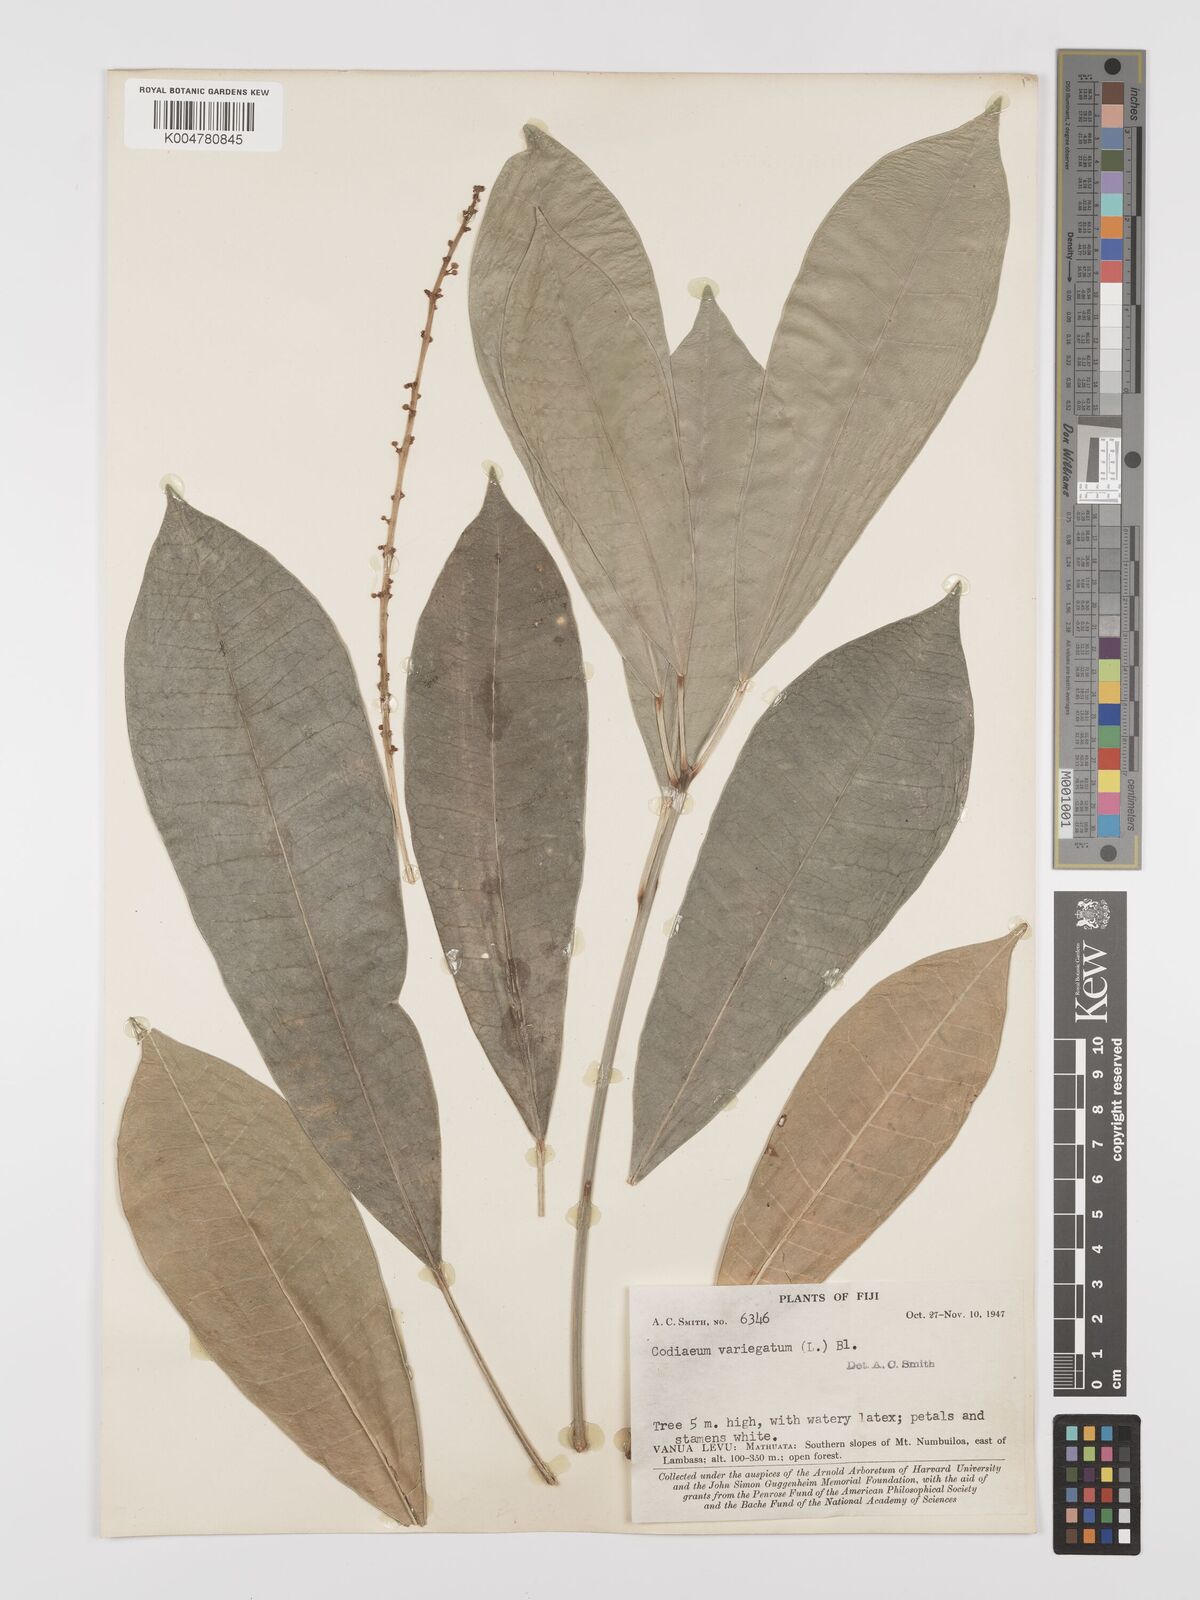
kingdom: Plantae
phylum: Tracheophyta
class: Magnoliopsida
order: Malpighiales
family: Euphorbiaceae
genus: Codiaeum
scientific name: Codiaeum variegatum
